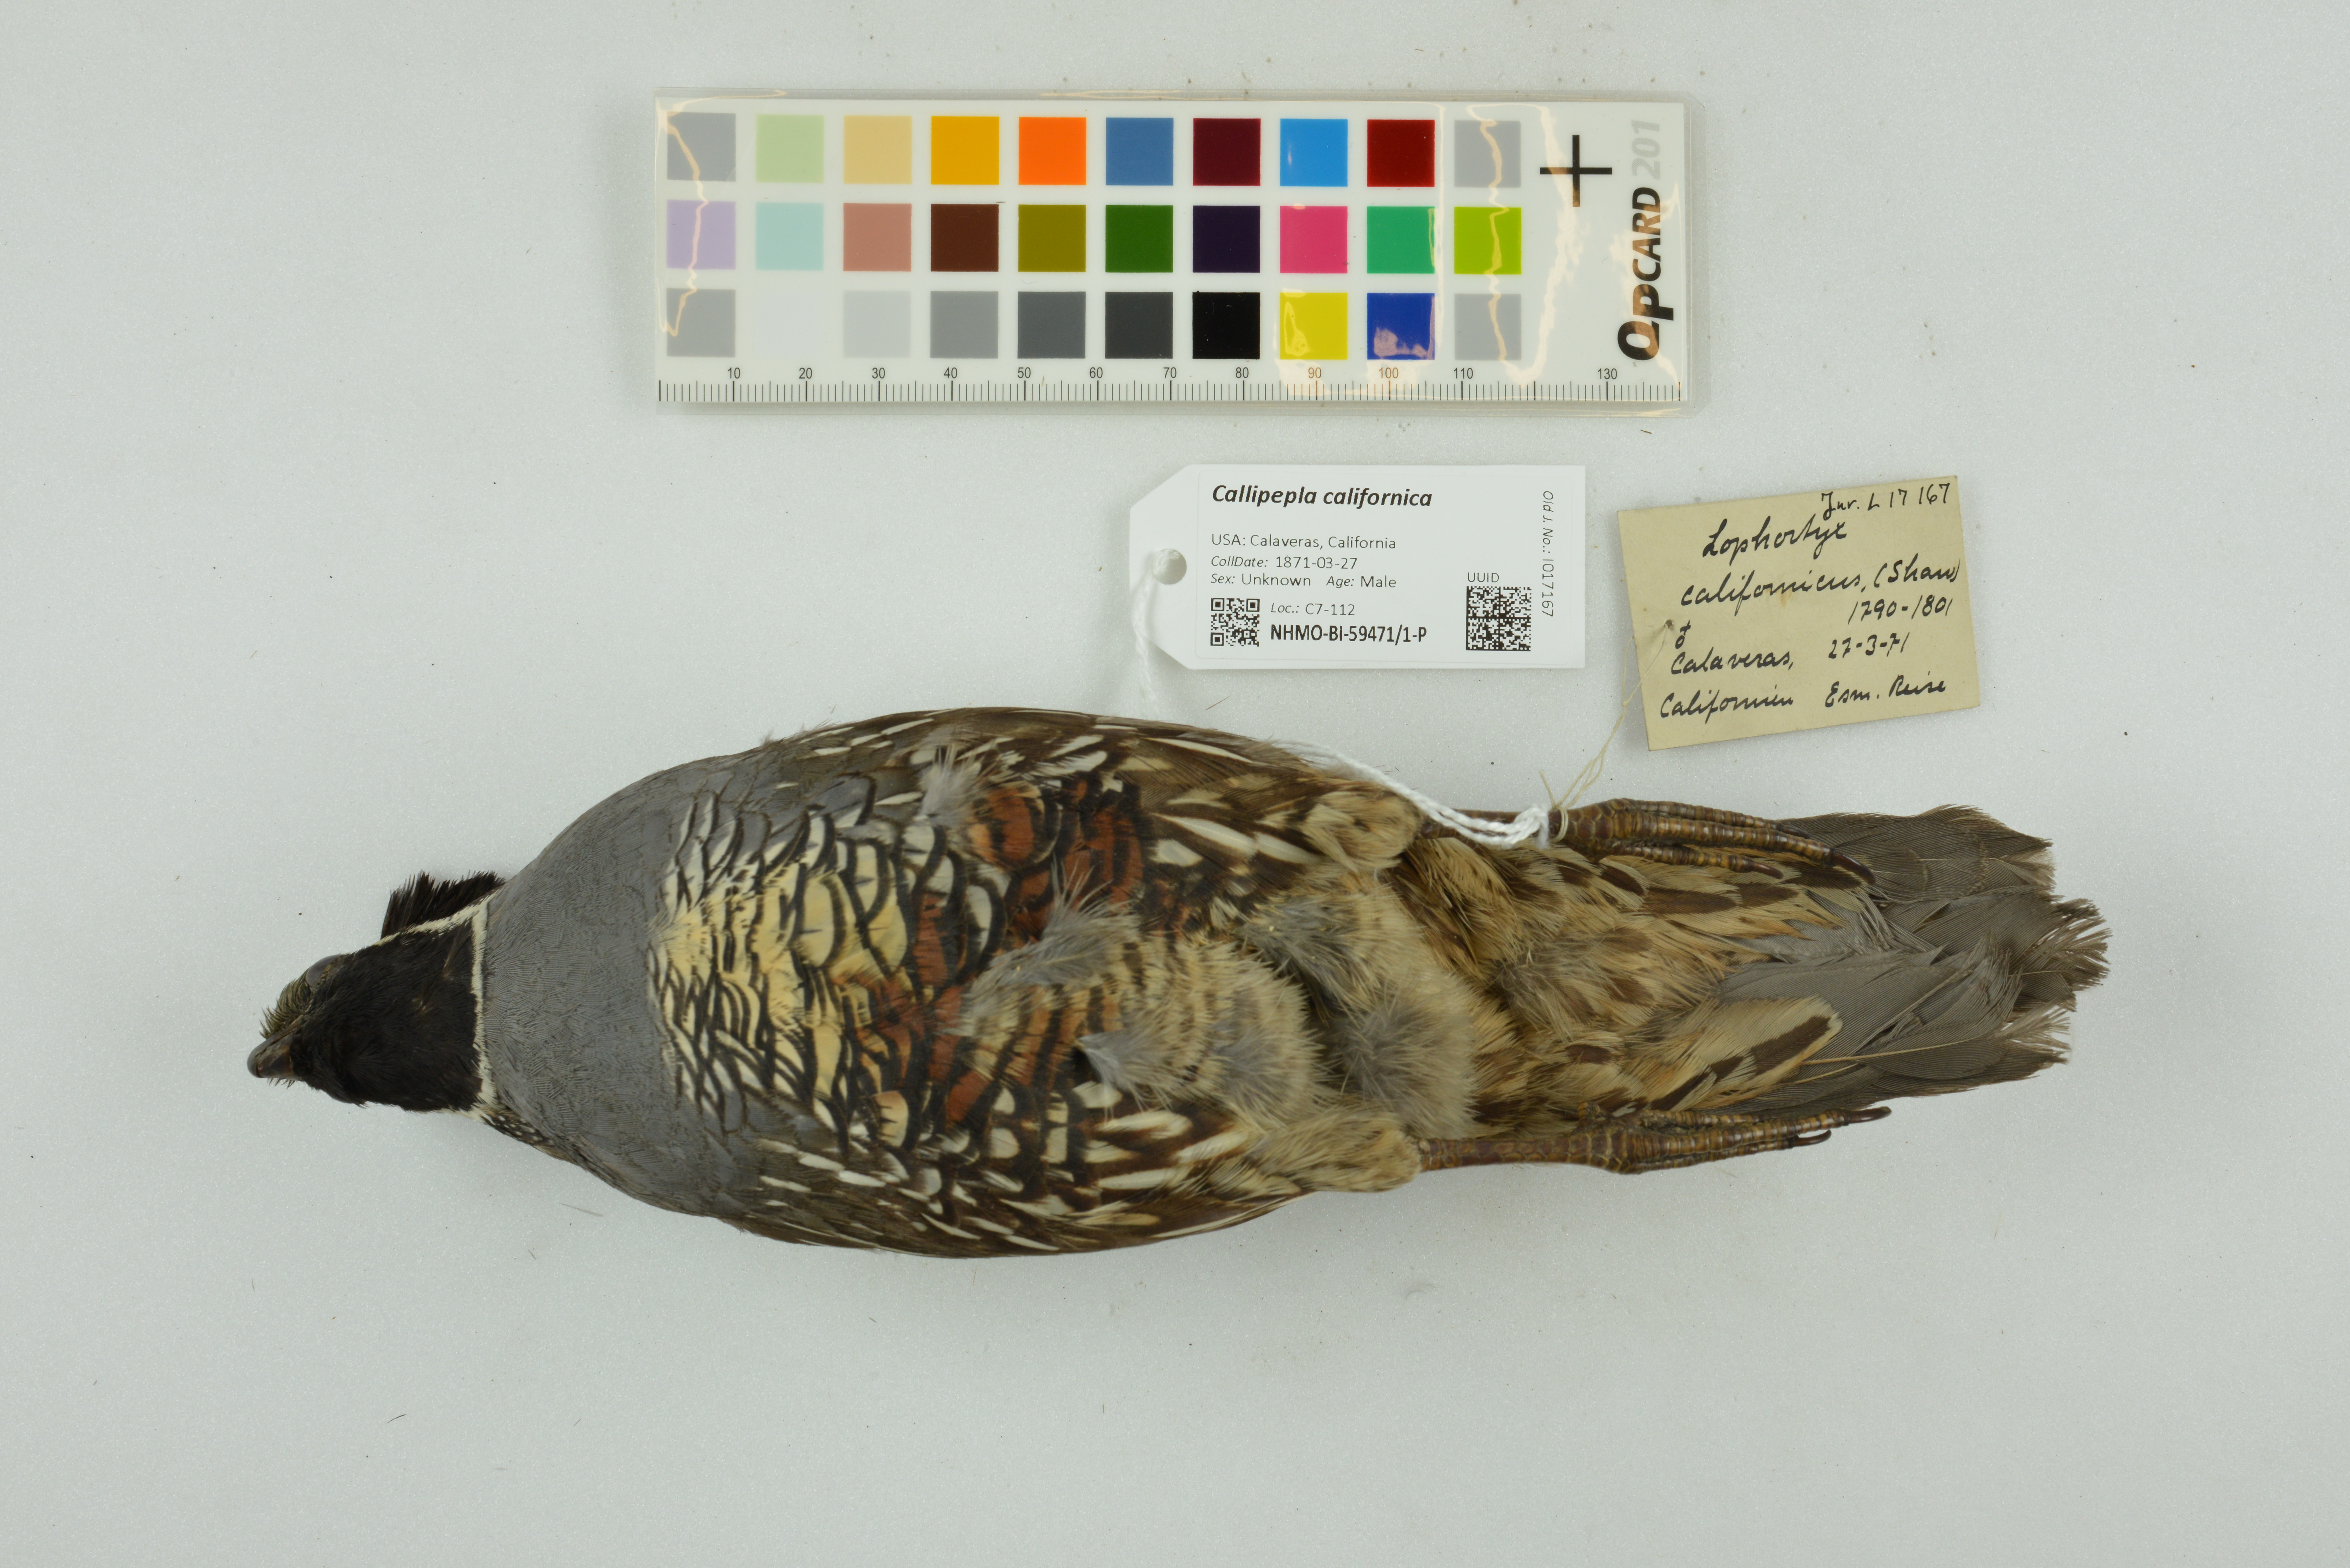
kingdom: Animalia
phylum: Chordata
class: Aves
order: Galliformes
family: Odontophoridae
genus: Callipepla
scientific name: Callipepla californica
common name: California quail
